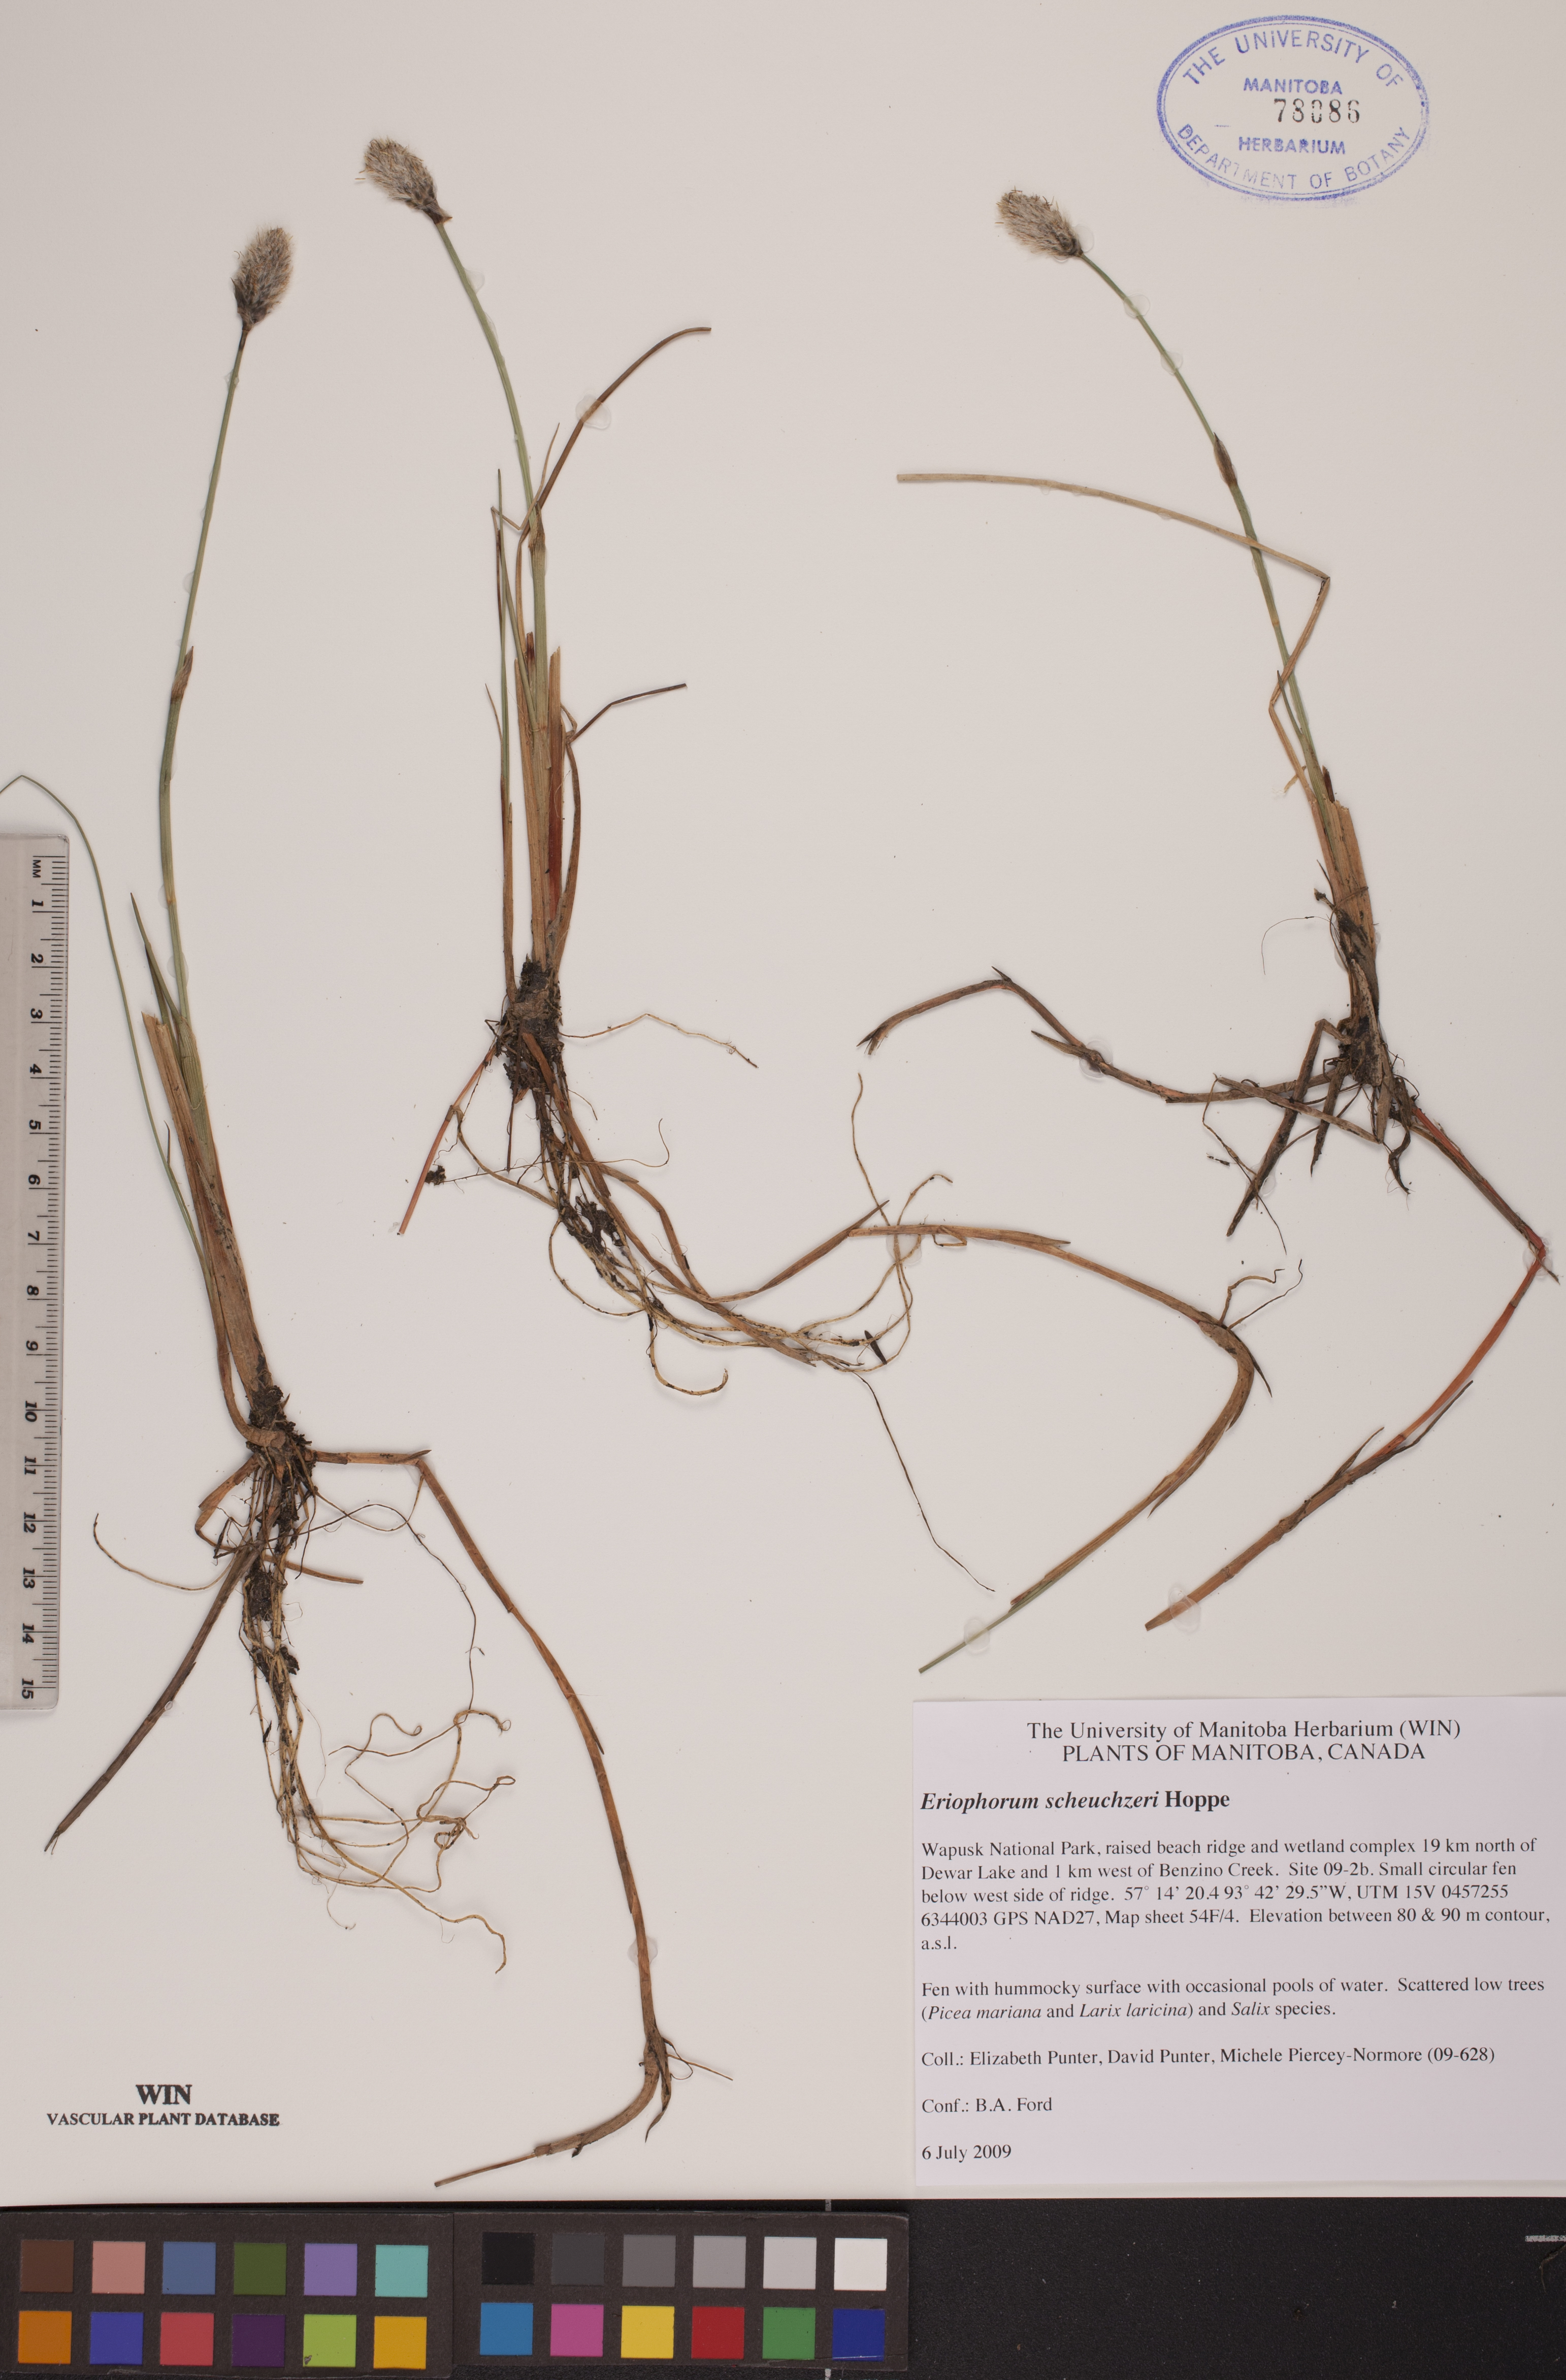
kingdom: Plantae
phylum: Tracheophyta
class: Liliopsida
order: Poales
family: Cyperaceae
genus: Eriophorum
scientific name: Eriophorum scheuchzeri
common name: Scheuchzer's cottongrass
